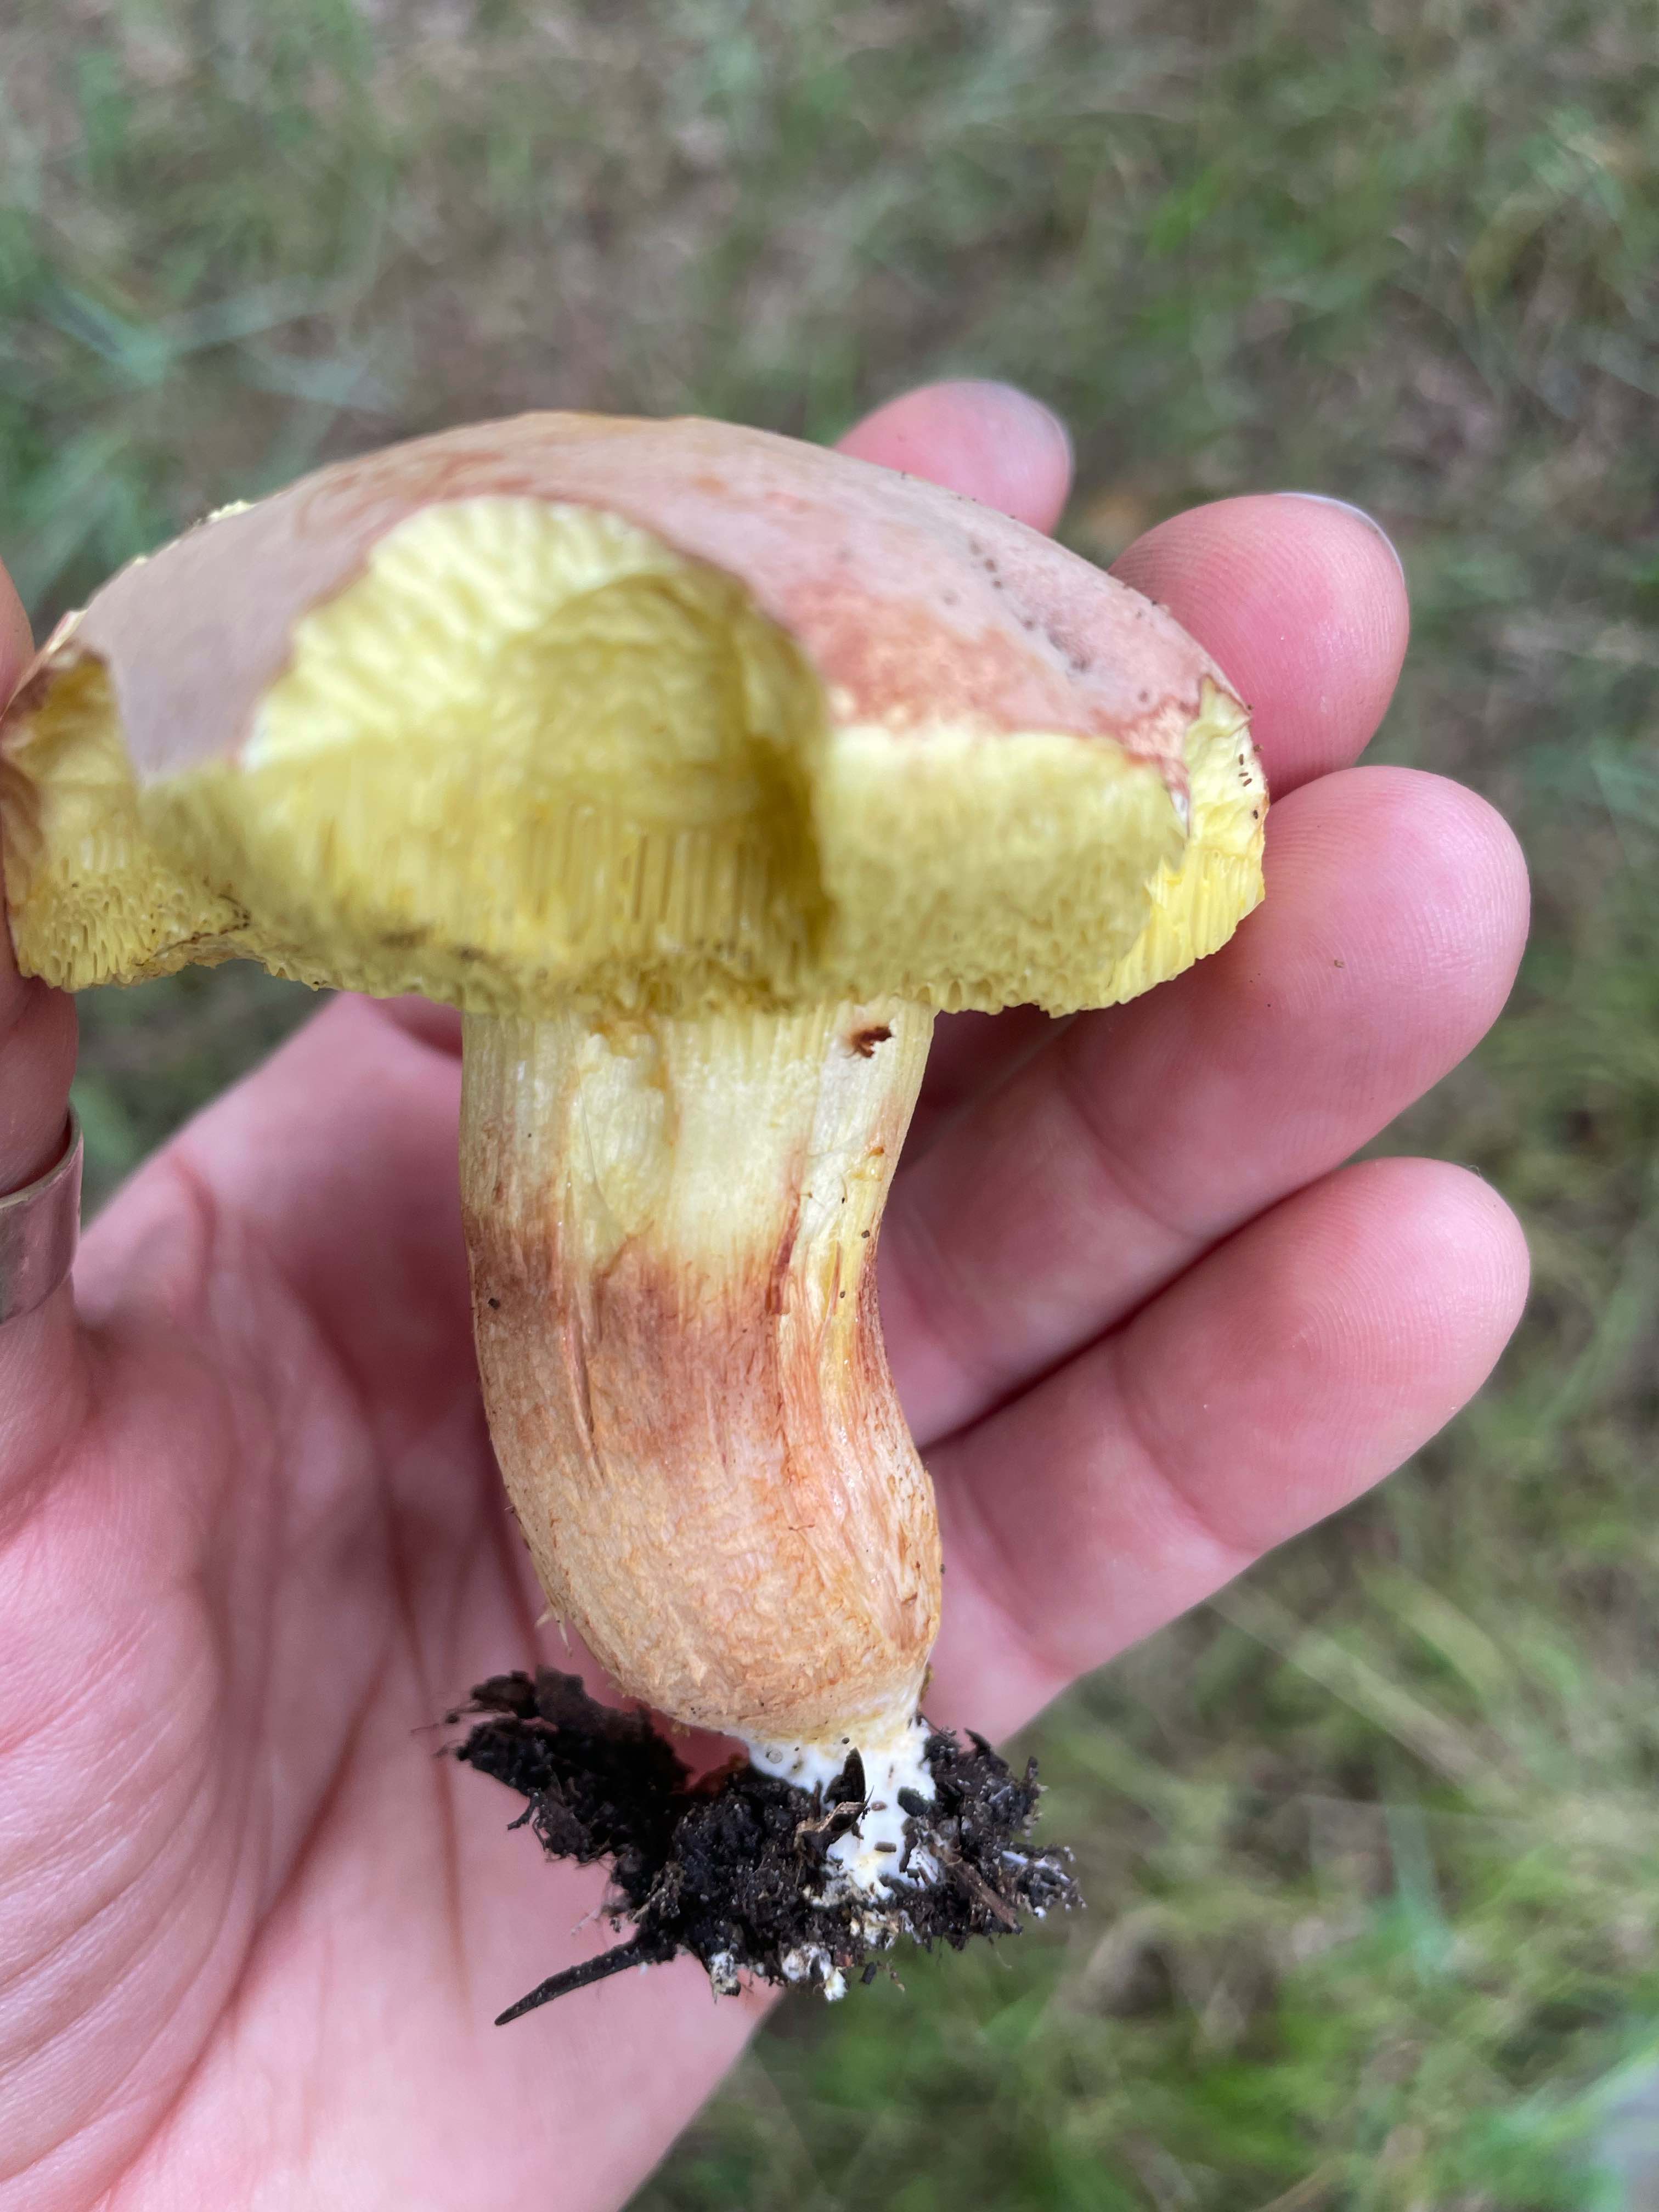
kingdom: Fungi
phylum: Basidiomycota
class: Agaricomycetes
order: Boletales
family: Boletaceae
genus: Xerocomus
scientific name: Xerocomus
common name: filtrørhat
